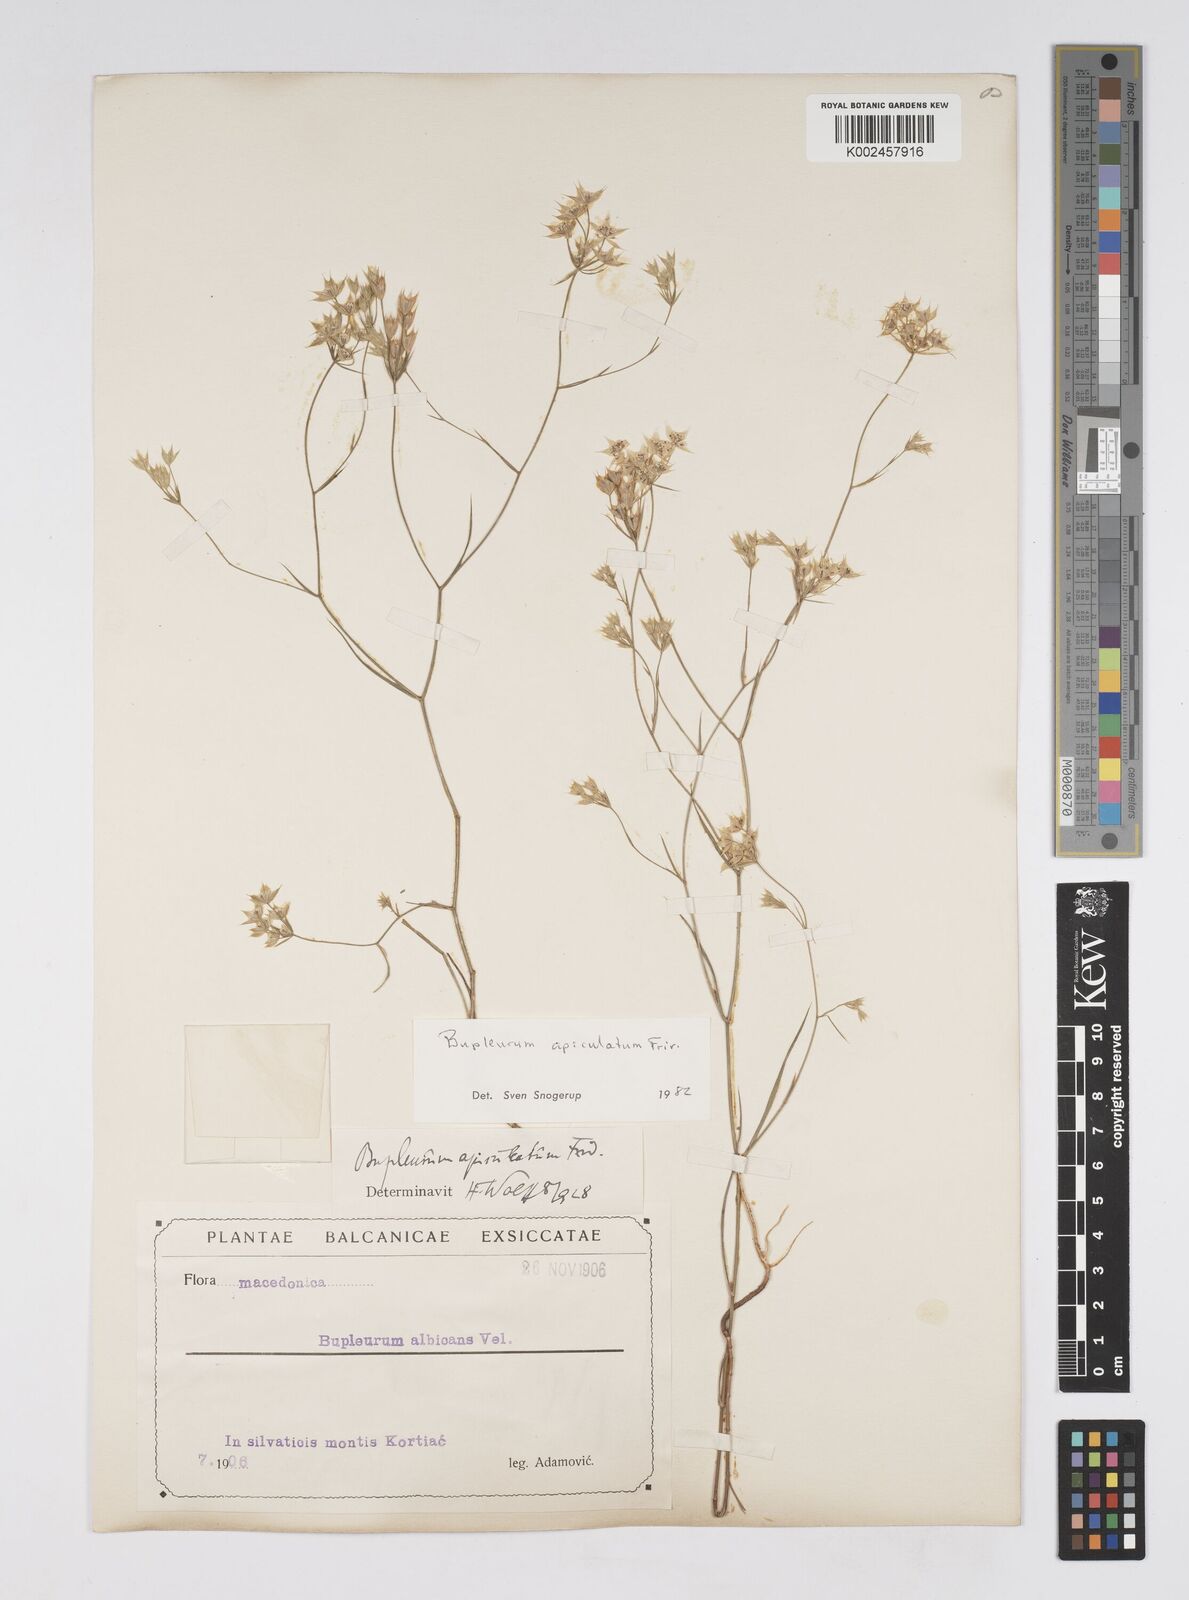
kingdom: Plantae
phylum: Tracheophyta
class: Magnoliopsida
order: Apiales
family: Apiaceae
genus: Bupleurum
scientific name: Bupleurum apiculatum
